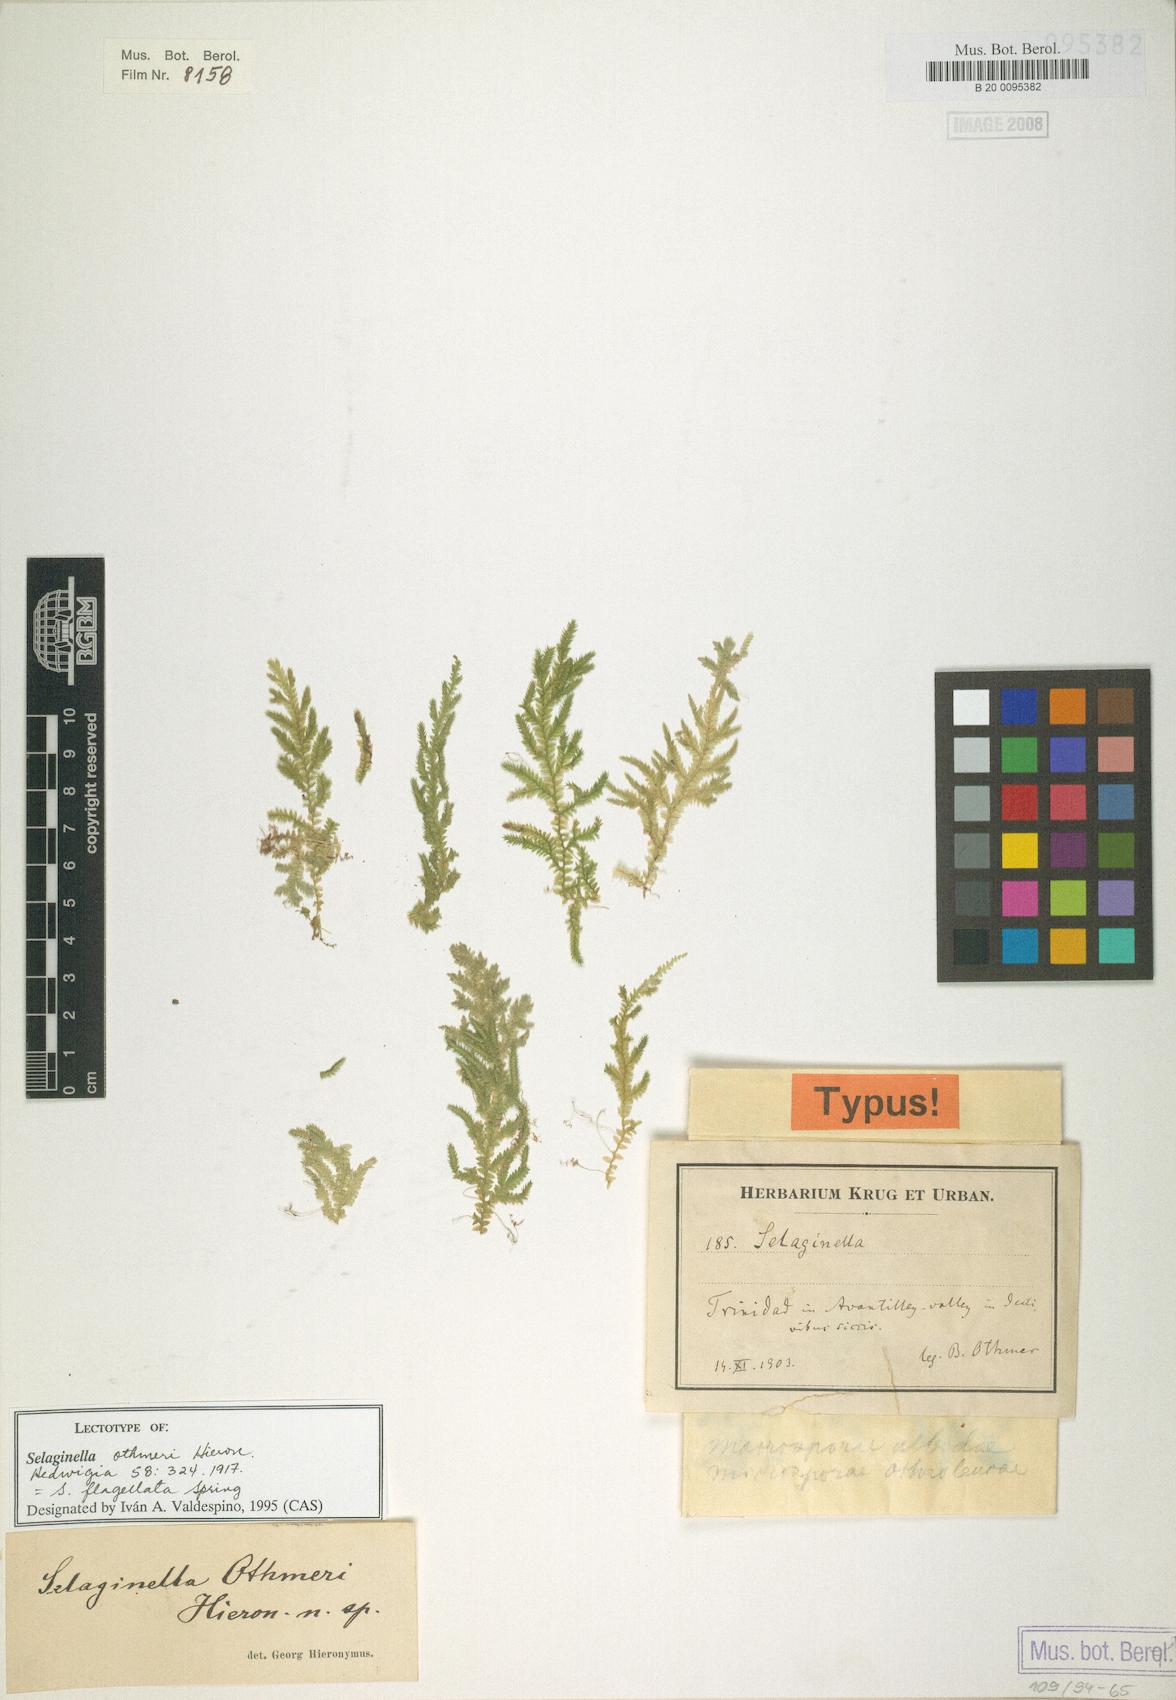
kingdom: Plantae
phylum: Tracheophyta
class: Lycopodiopsida
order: Selaginellales
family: Selaginellaceae
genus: Selaginella
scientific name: Selaginella flagellata
